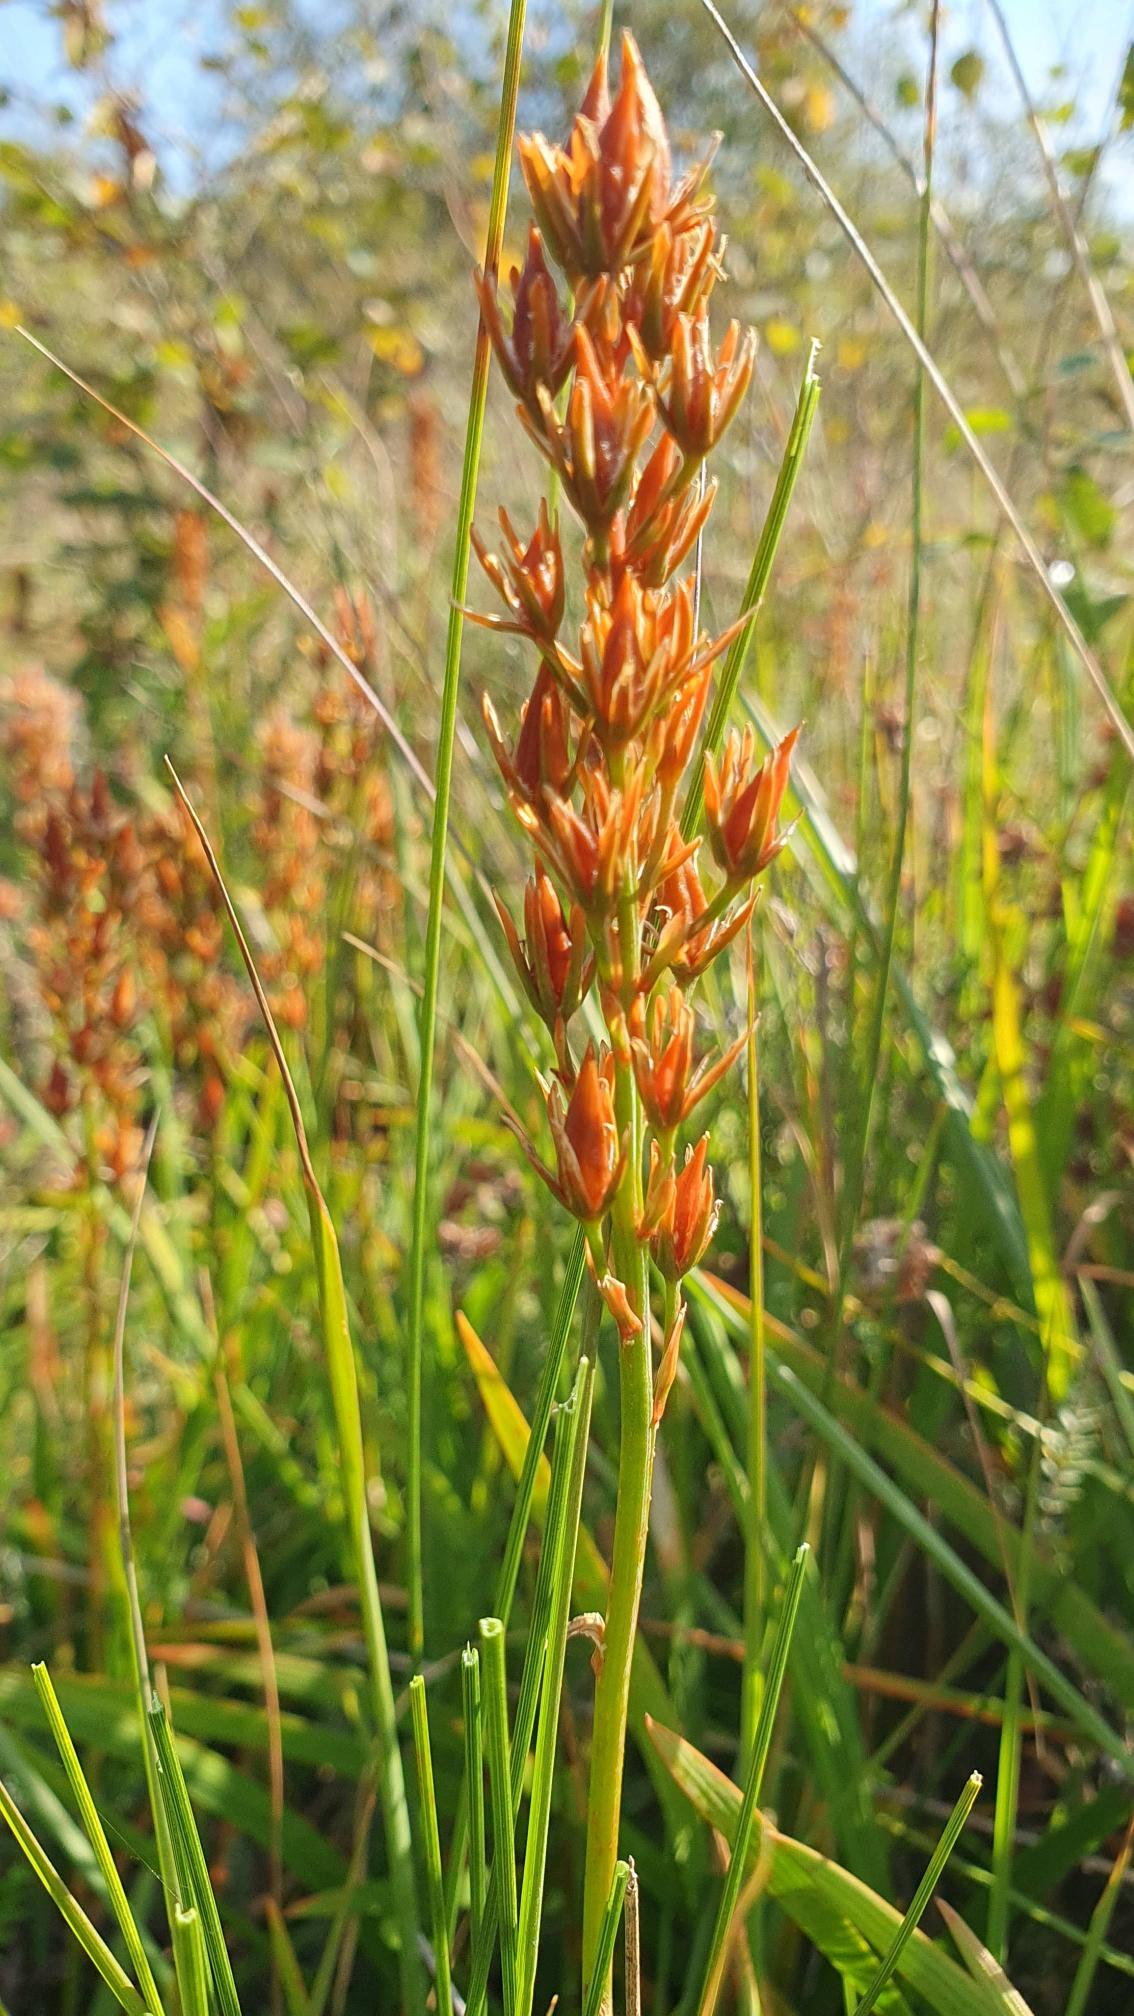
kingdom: Plantae
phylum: Tracheophyta
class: Liliopsida
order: Dioscoreales
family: Nartheciaceae
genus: Narthecium
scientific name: Narthecium ossifragum
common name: Benbræk
